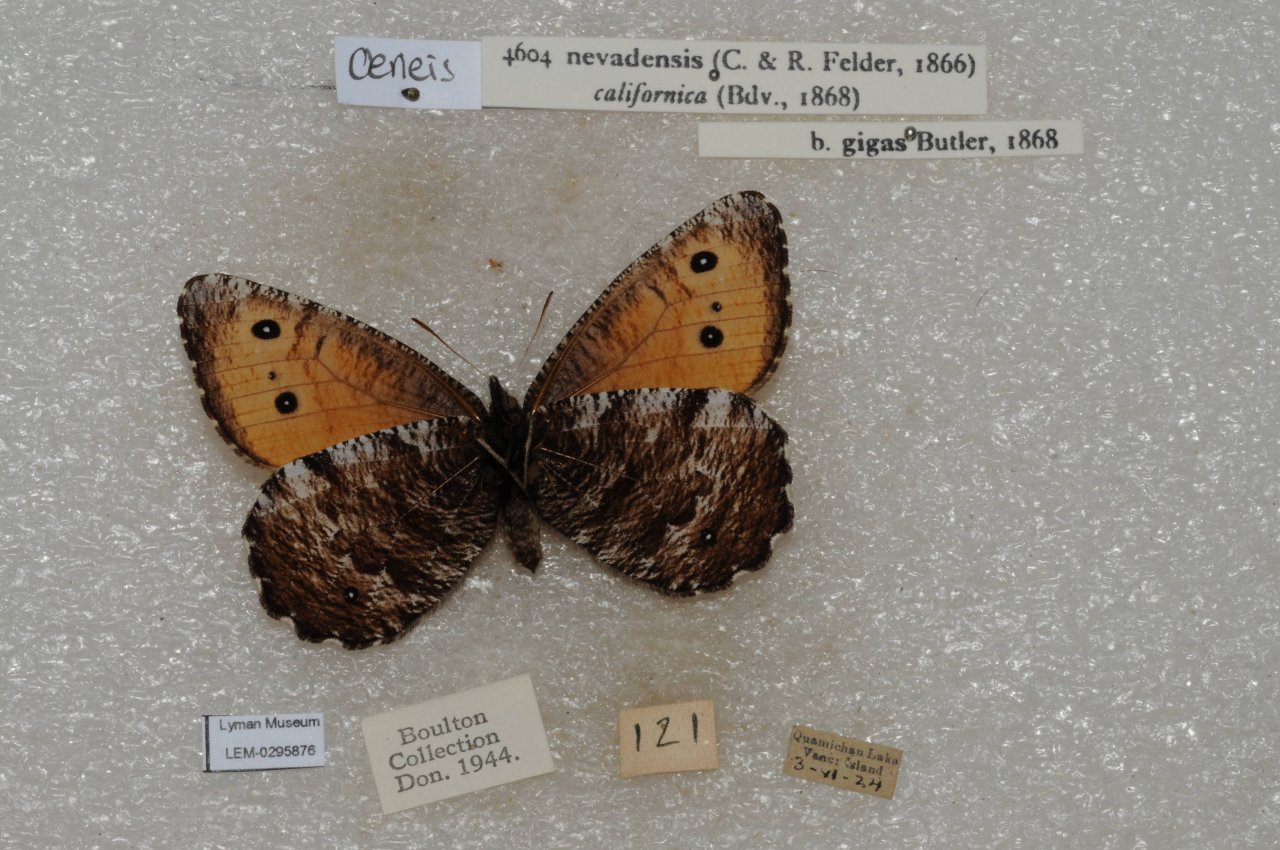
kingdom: Animalia
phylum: Arthropoda
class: Insecta
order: Lepidoptera
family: Nymphalidae
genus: Oeneis
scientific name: Oeneis nevadensis
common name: Great Arctic
